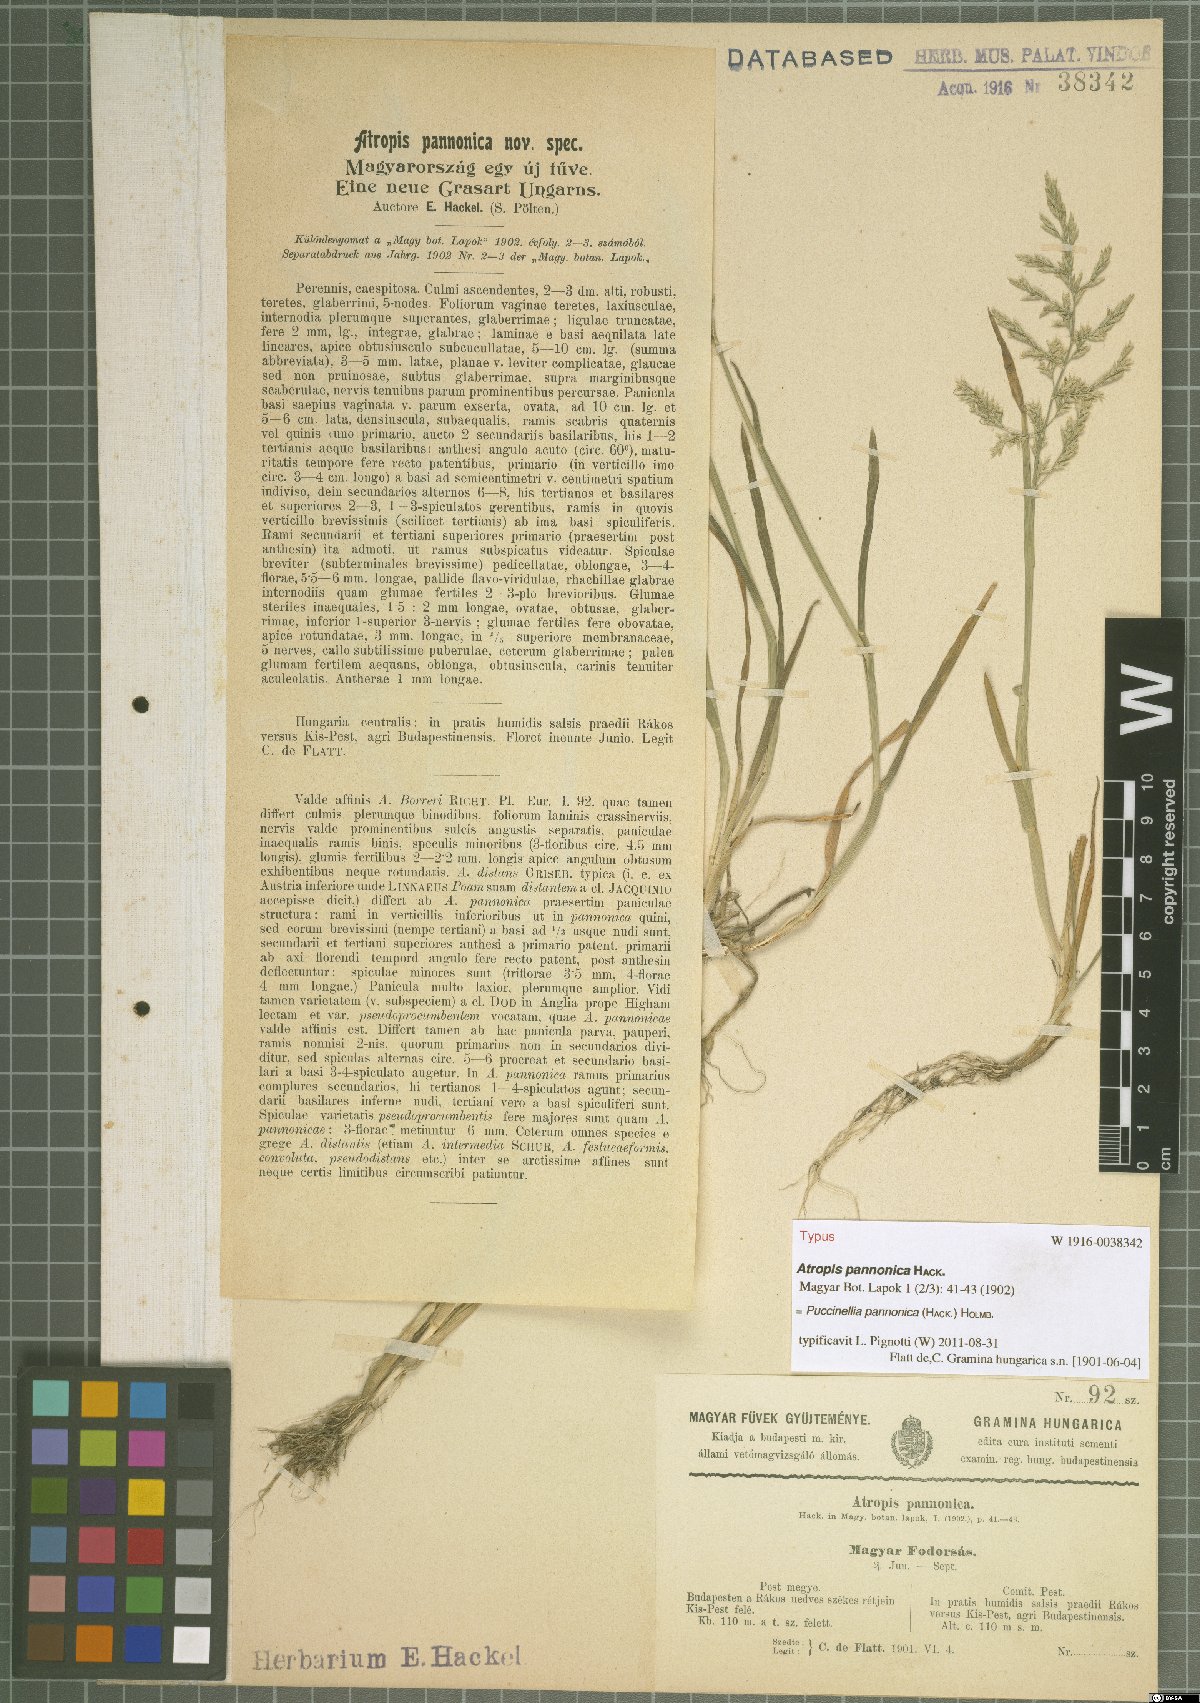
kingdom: Plantae
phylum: Tracheophyta
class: Liliopsida
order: Poales
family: Poaceae
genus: Puccinellia
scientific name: Puccinellia pannonica
